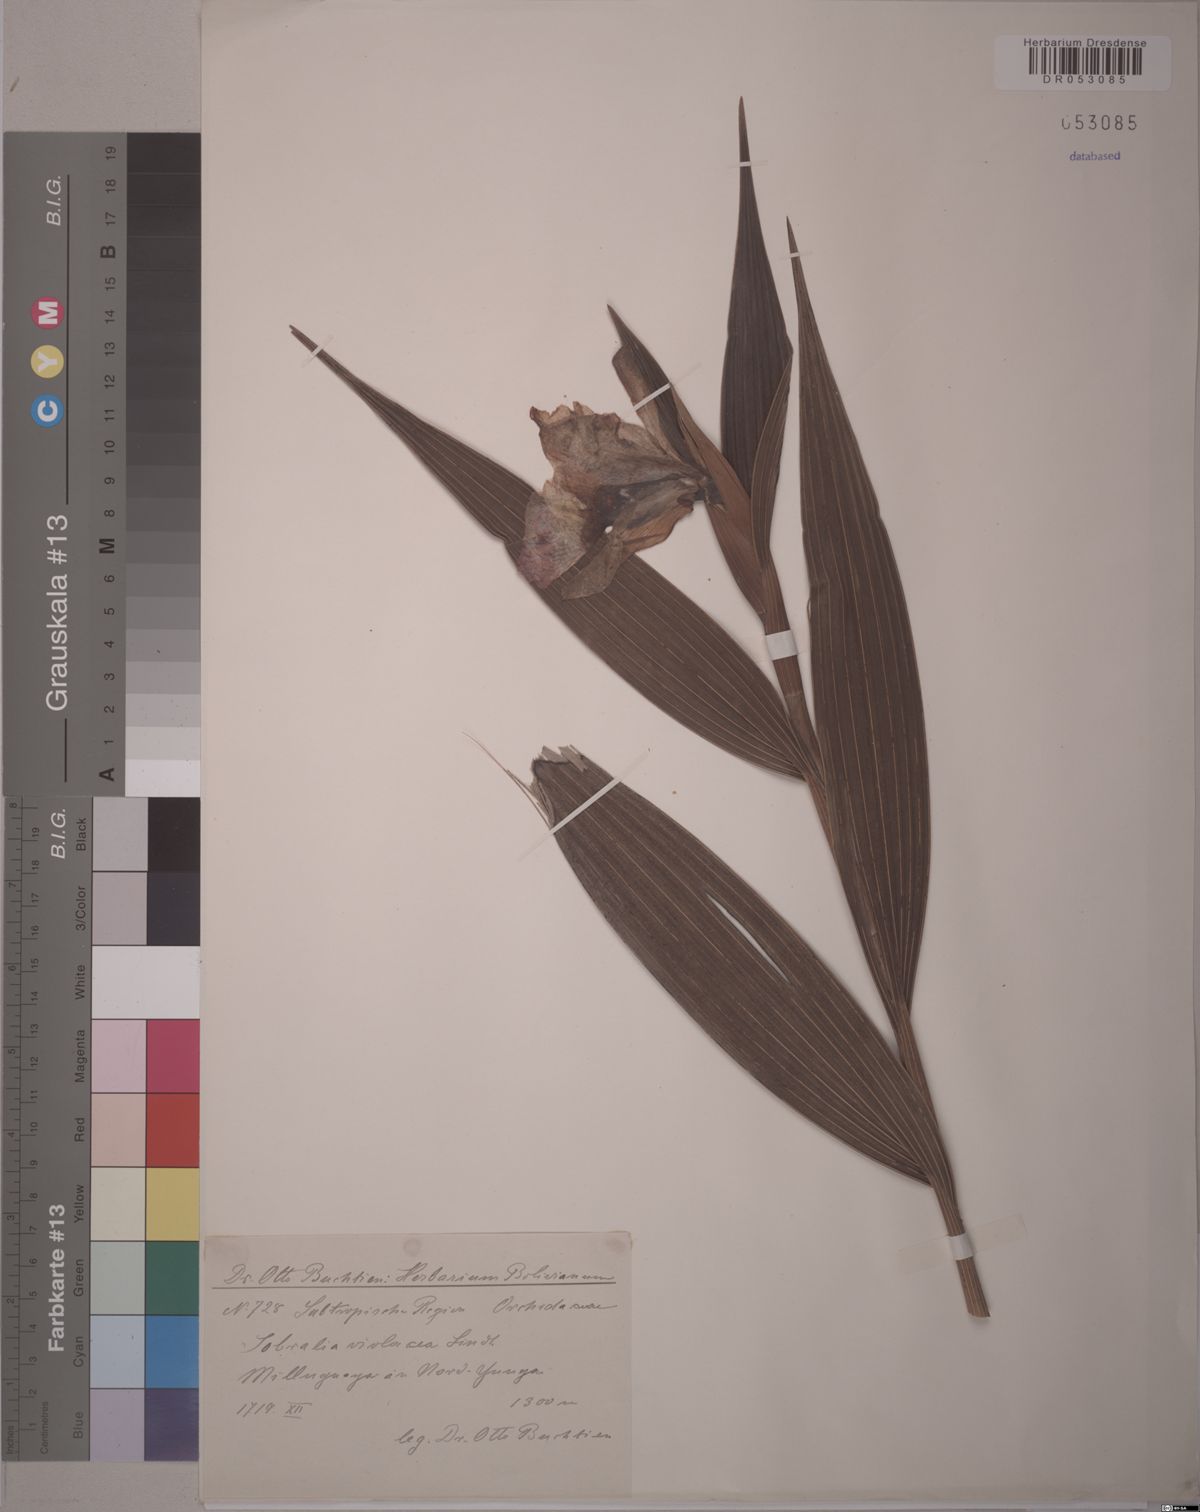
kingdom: Plantae
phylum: Tracheophyta
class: Liliopsida
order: Asparagales
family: Orchidaceae
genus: Sobralia
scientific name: Sobralia violacea
